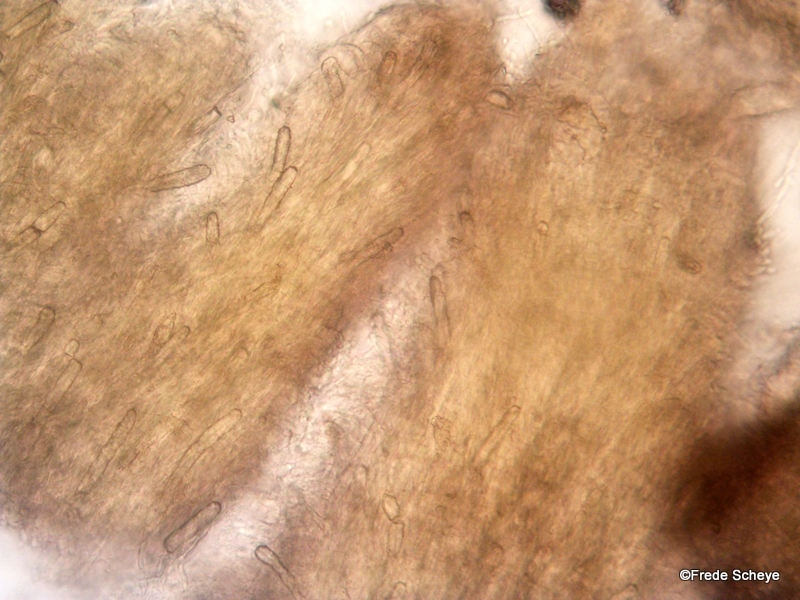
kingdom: Fungi
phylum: Basidiomycota
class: Agaricomycetes
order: Polyporales
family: Steccherinaceae
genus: Steccherinum
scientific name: Steccherinum ochraceum
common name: almindelig skønpig
